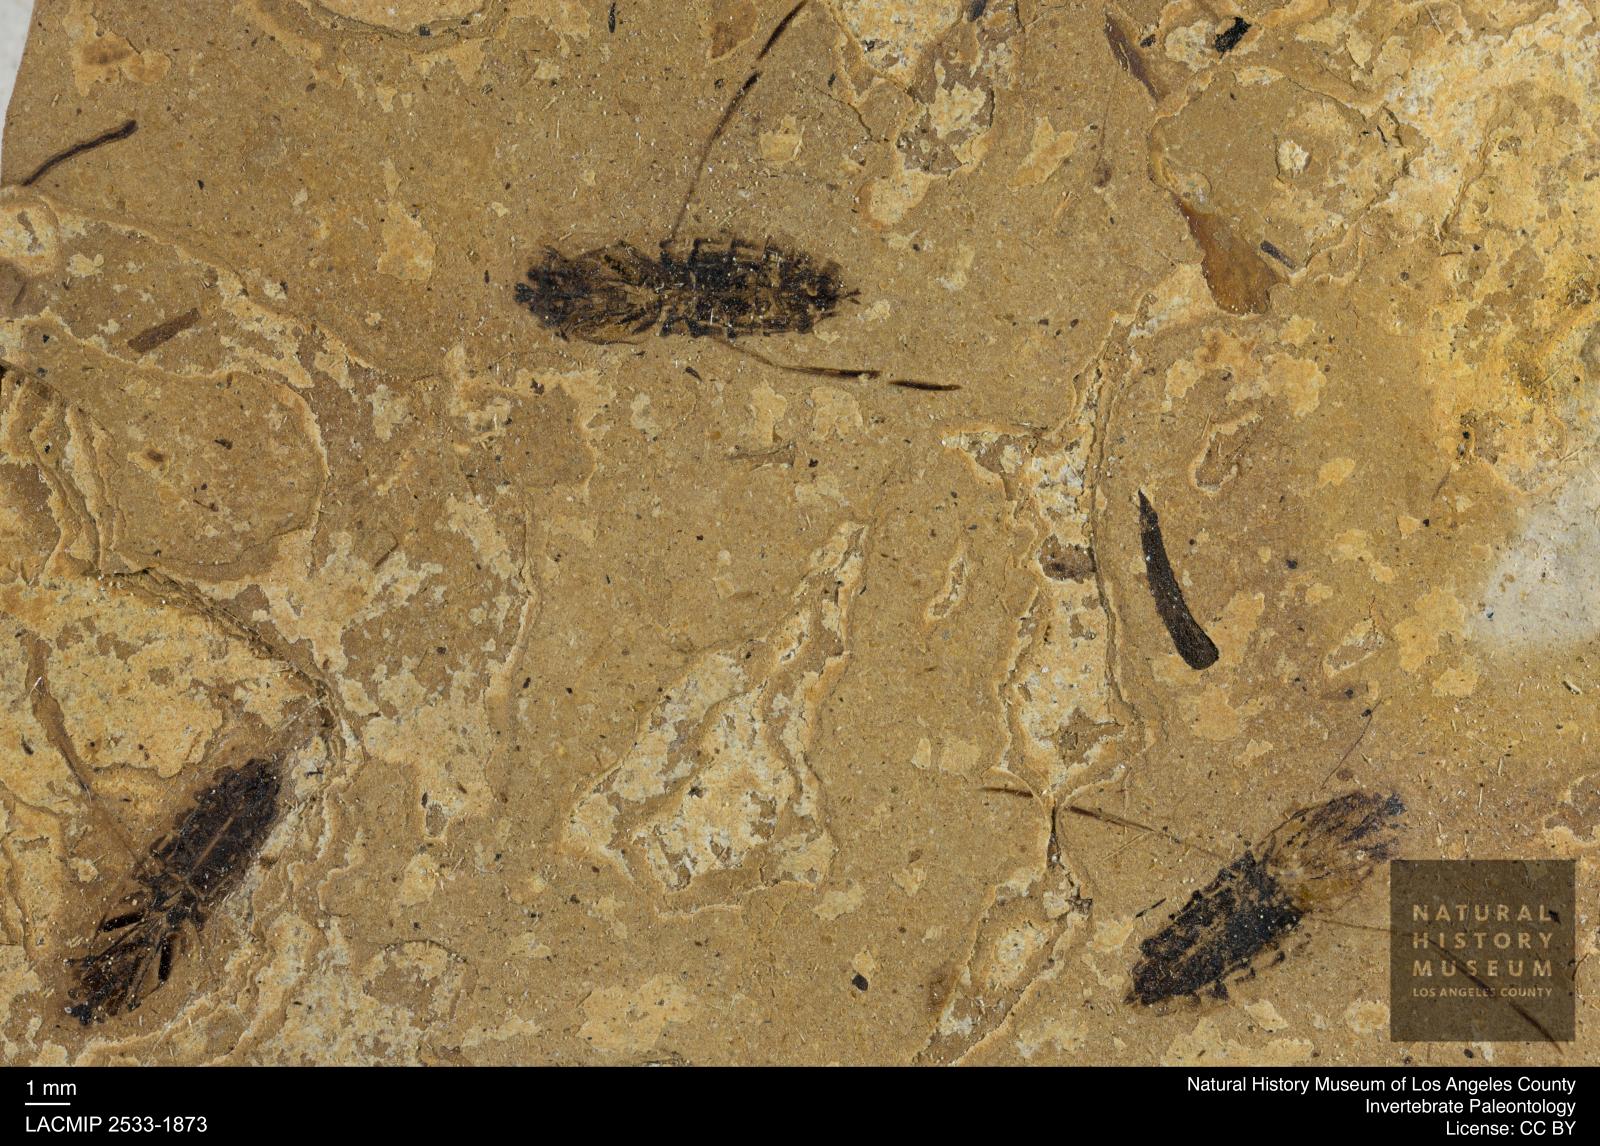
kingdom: Animalia
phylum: Arthropoda
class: Insecta
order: Hemiptera
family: Notonectidae
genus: Anisops
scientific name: Anisops Notonecta deichmuelleri
